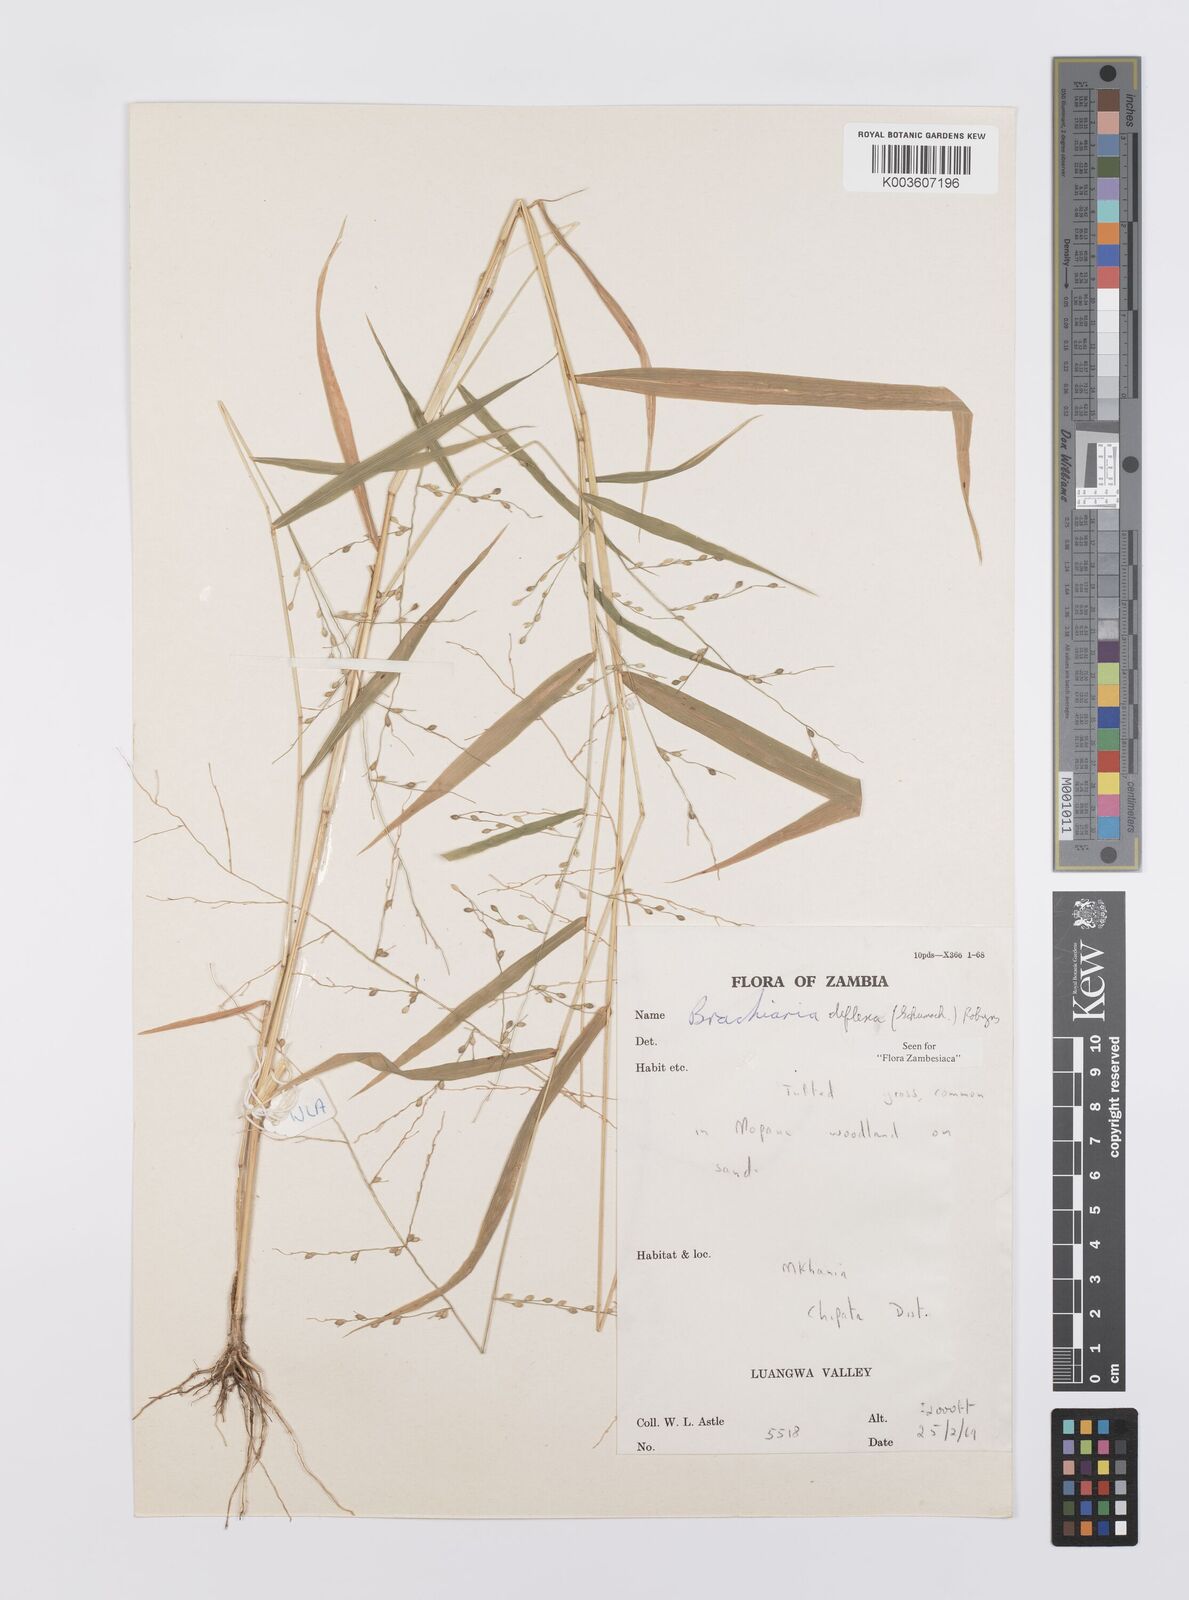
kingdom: Plantae
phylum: Tracheophyta
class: Liliopsida
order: Poales
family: Poaceae
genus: Urochloa
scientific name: Urochloa deflexa
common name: Guinea millet
